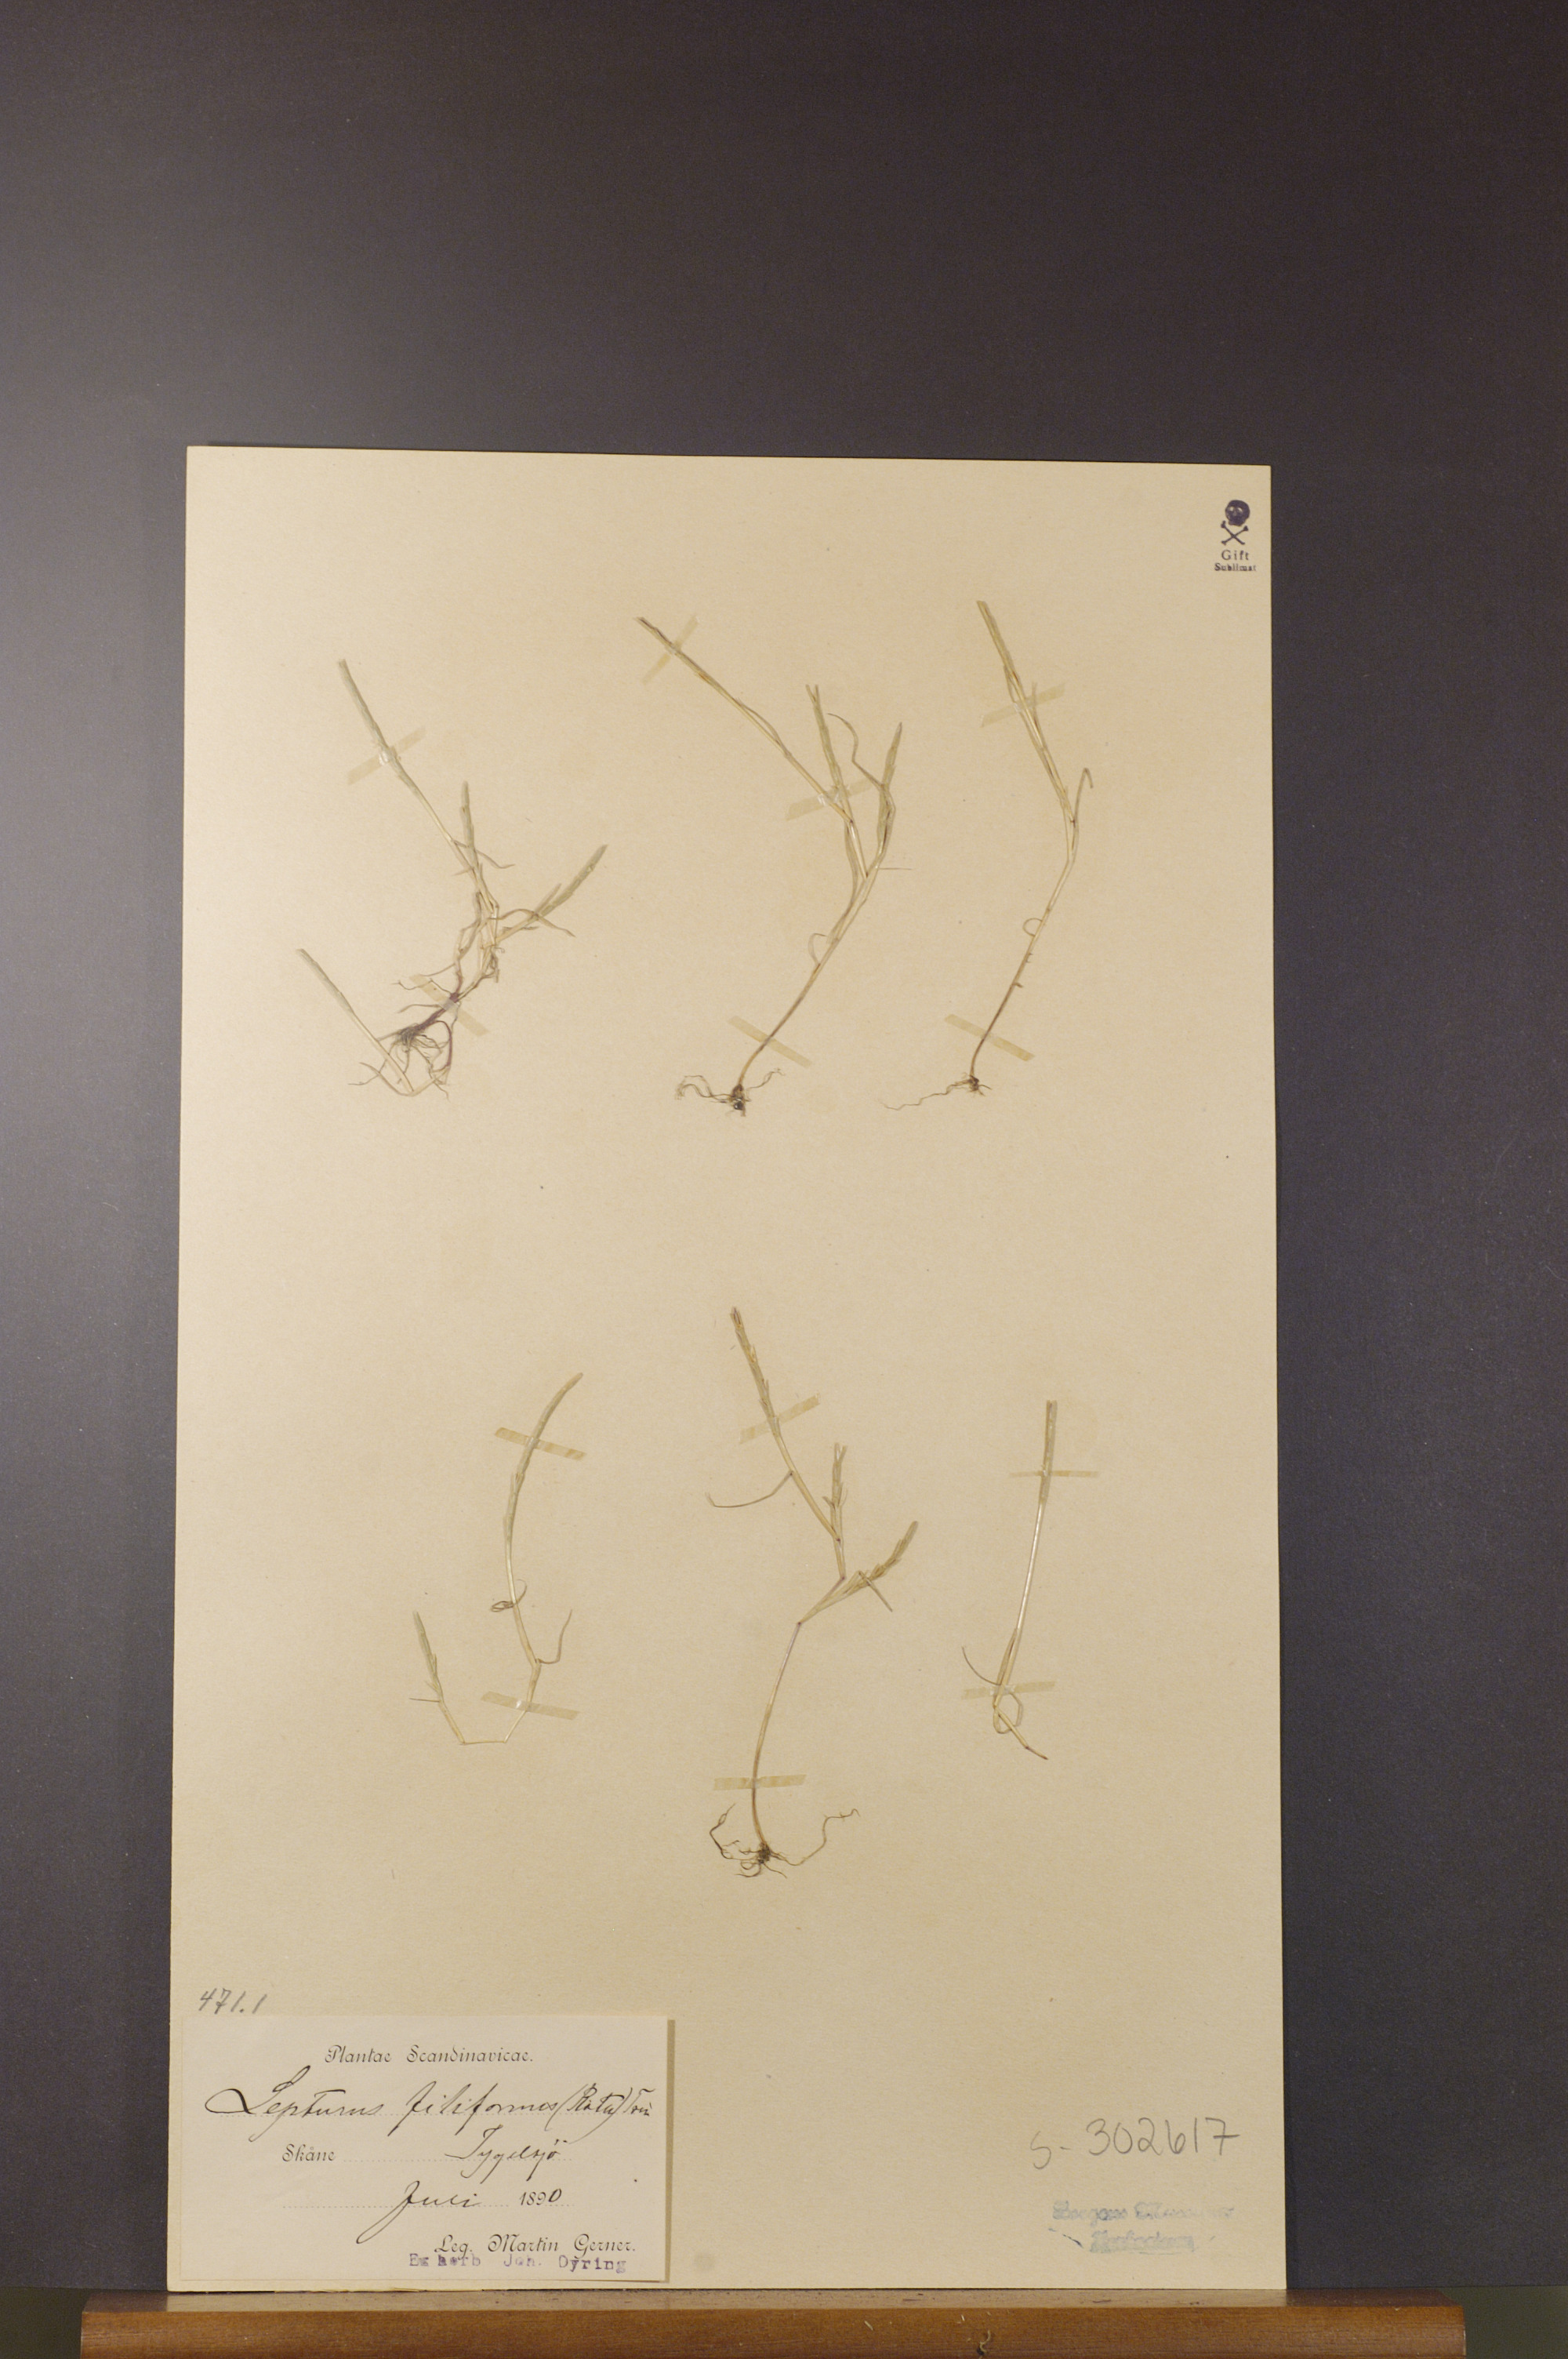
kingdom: Plantae
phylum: Tracheophyta
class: Liliopsida
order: Poales
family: Poaceae
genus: Parapholis
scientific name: Parapholis strigosa
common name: Hard-grass
